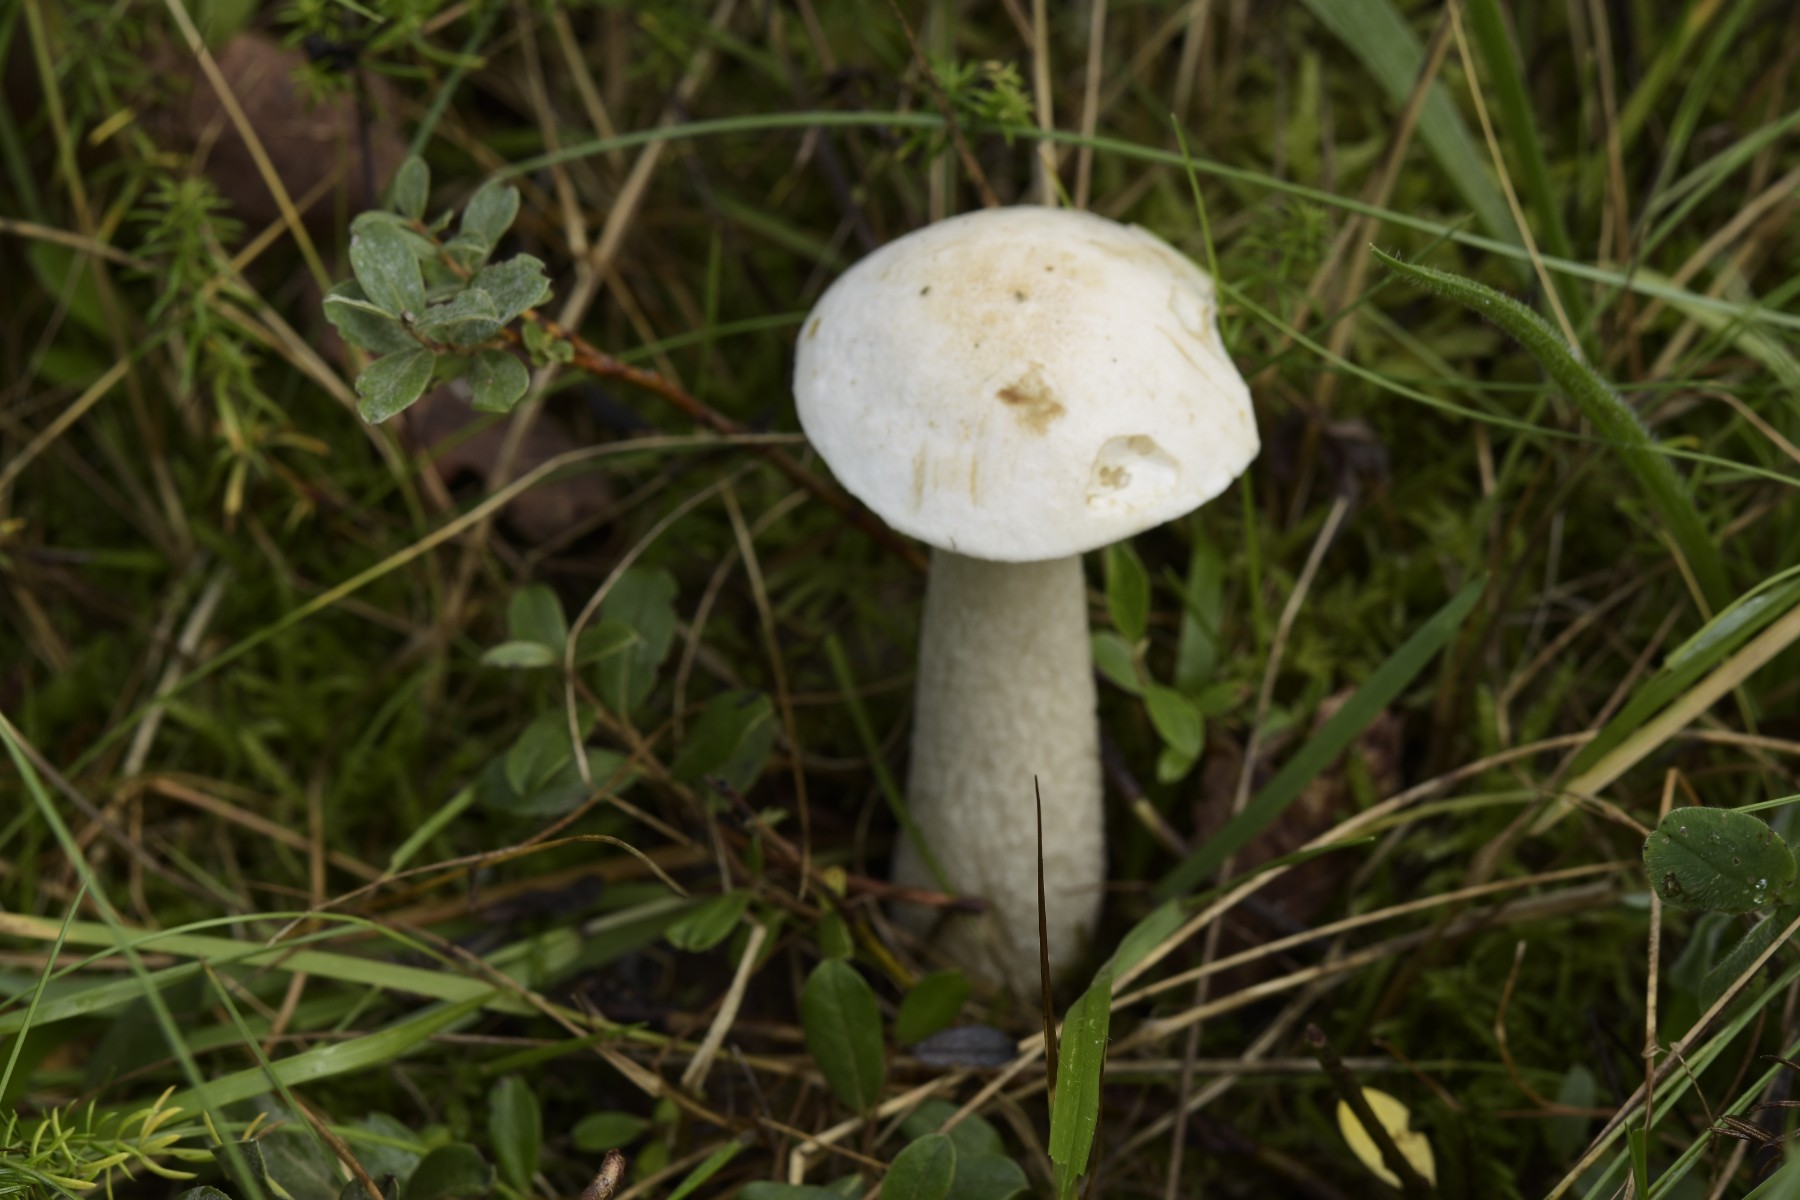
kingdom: Fungi
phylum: Basidiomycota
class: Agaricomycetes
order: Boletales
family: Boletaceae
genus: Leccinum
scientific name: Leccinum scabrum
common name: hvid skælrørhat
